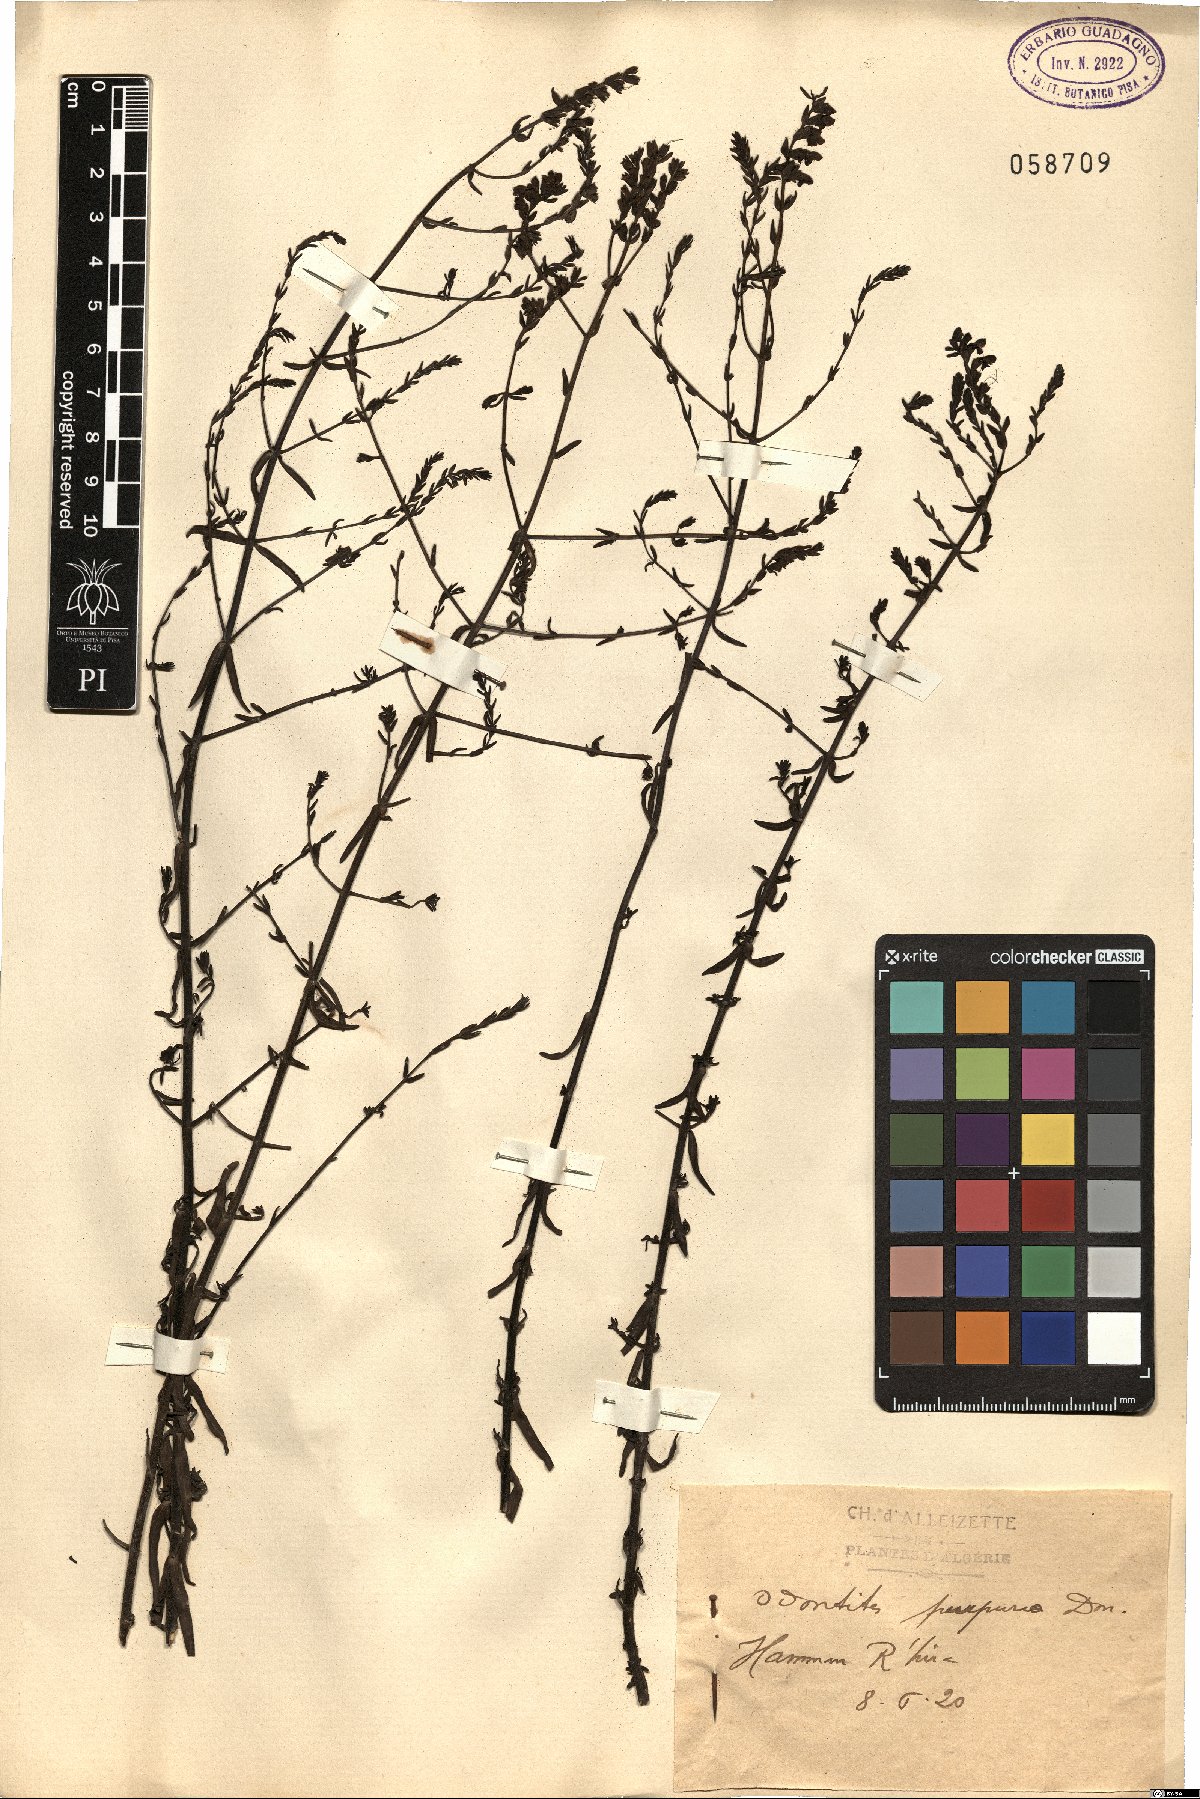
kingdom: Plantae
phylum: Tracheophyta
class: Magnoliopsida
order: Lamiales
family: Orobanchaceae
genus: Odontites
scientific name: Odontites purpureus
